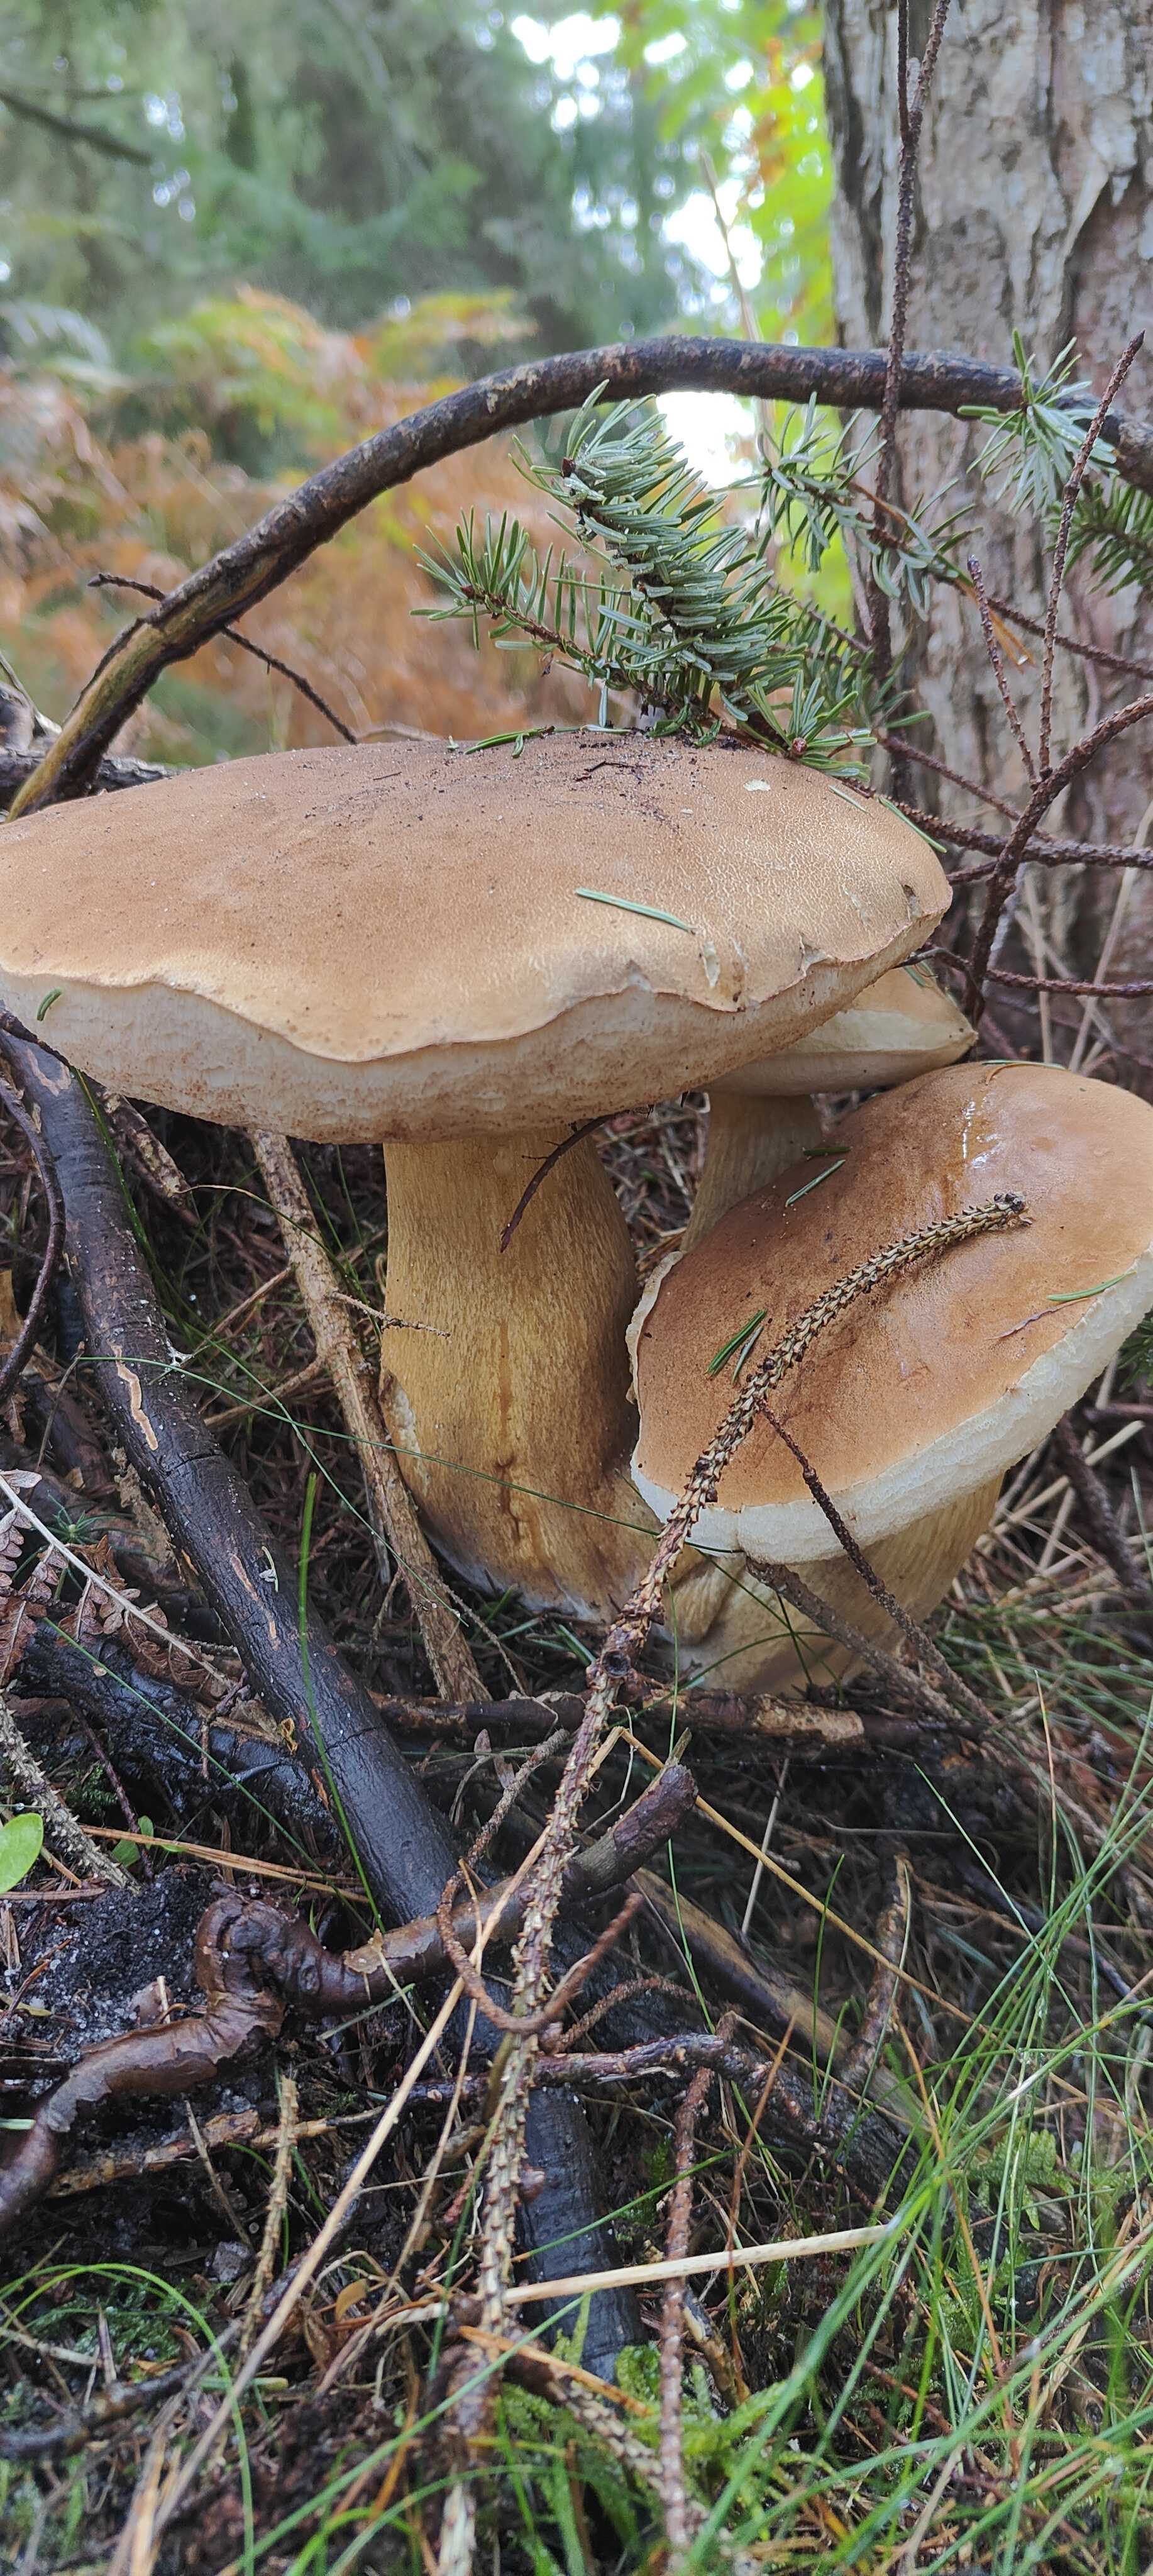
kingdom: Fungi
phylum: Basidiomycota
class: Agaricomycetes
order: Boletales
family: Boletaceae
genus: Tylopilus
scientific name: Tylopilus felleus
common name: galderørhat
